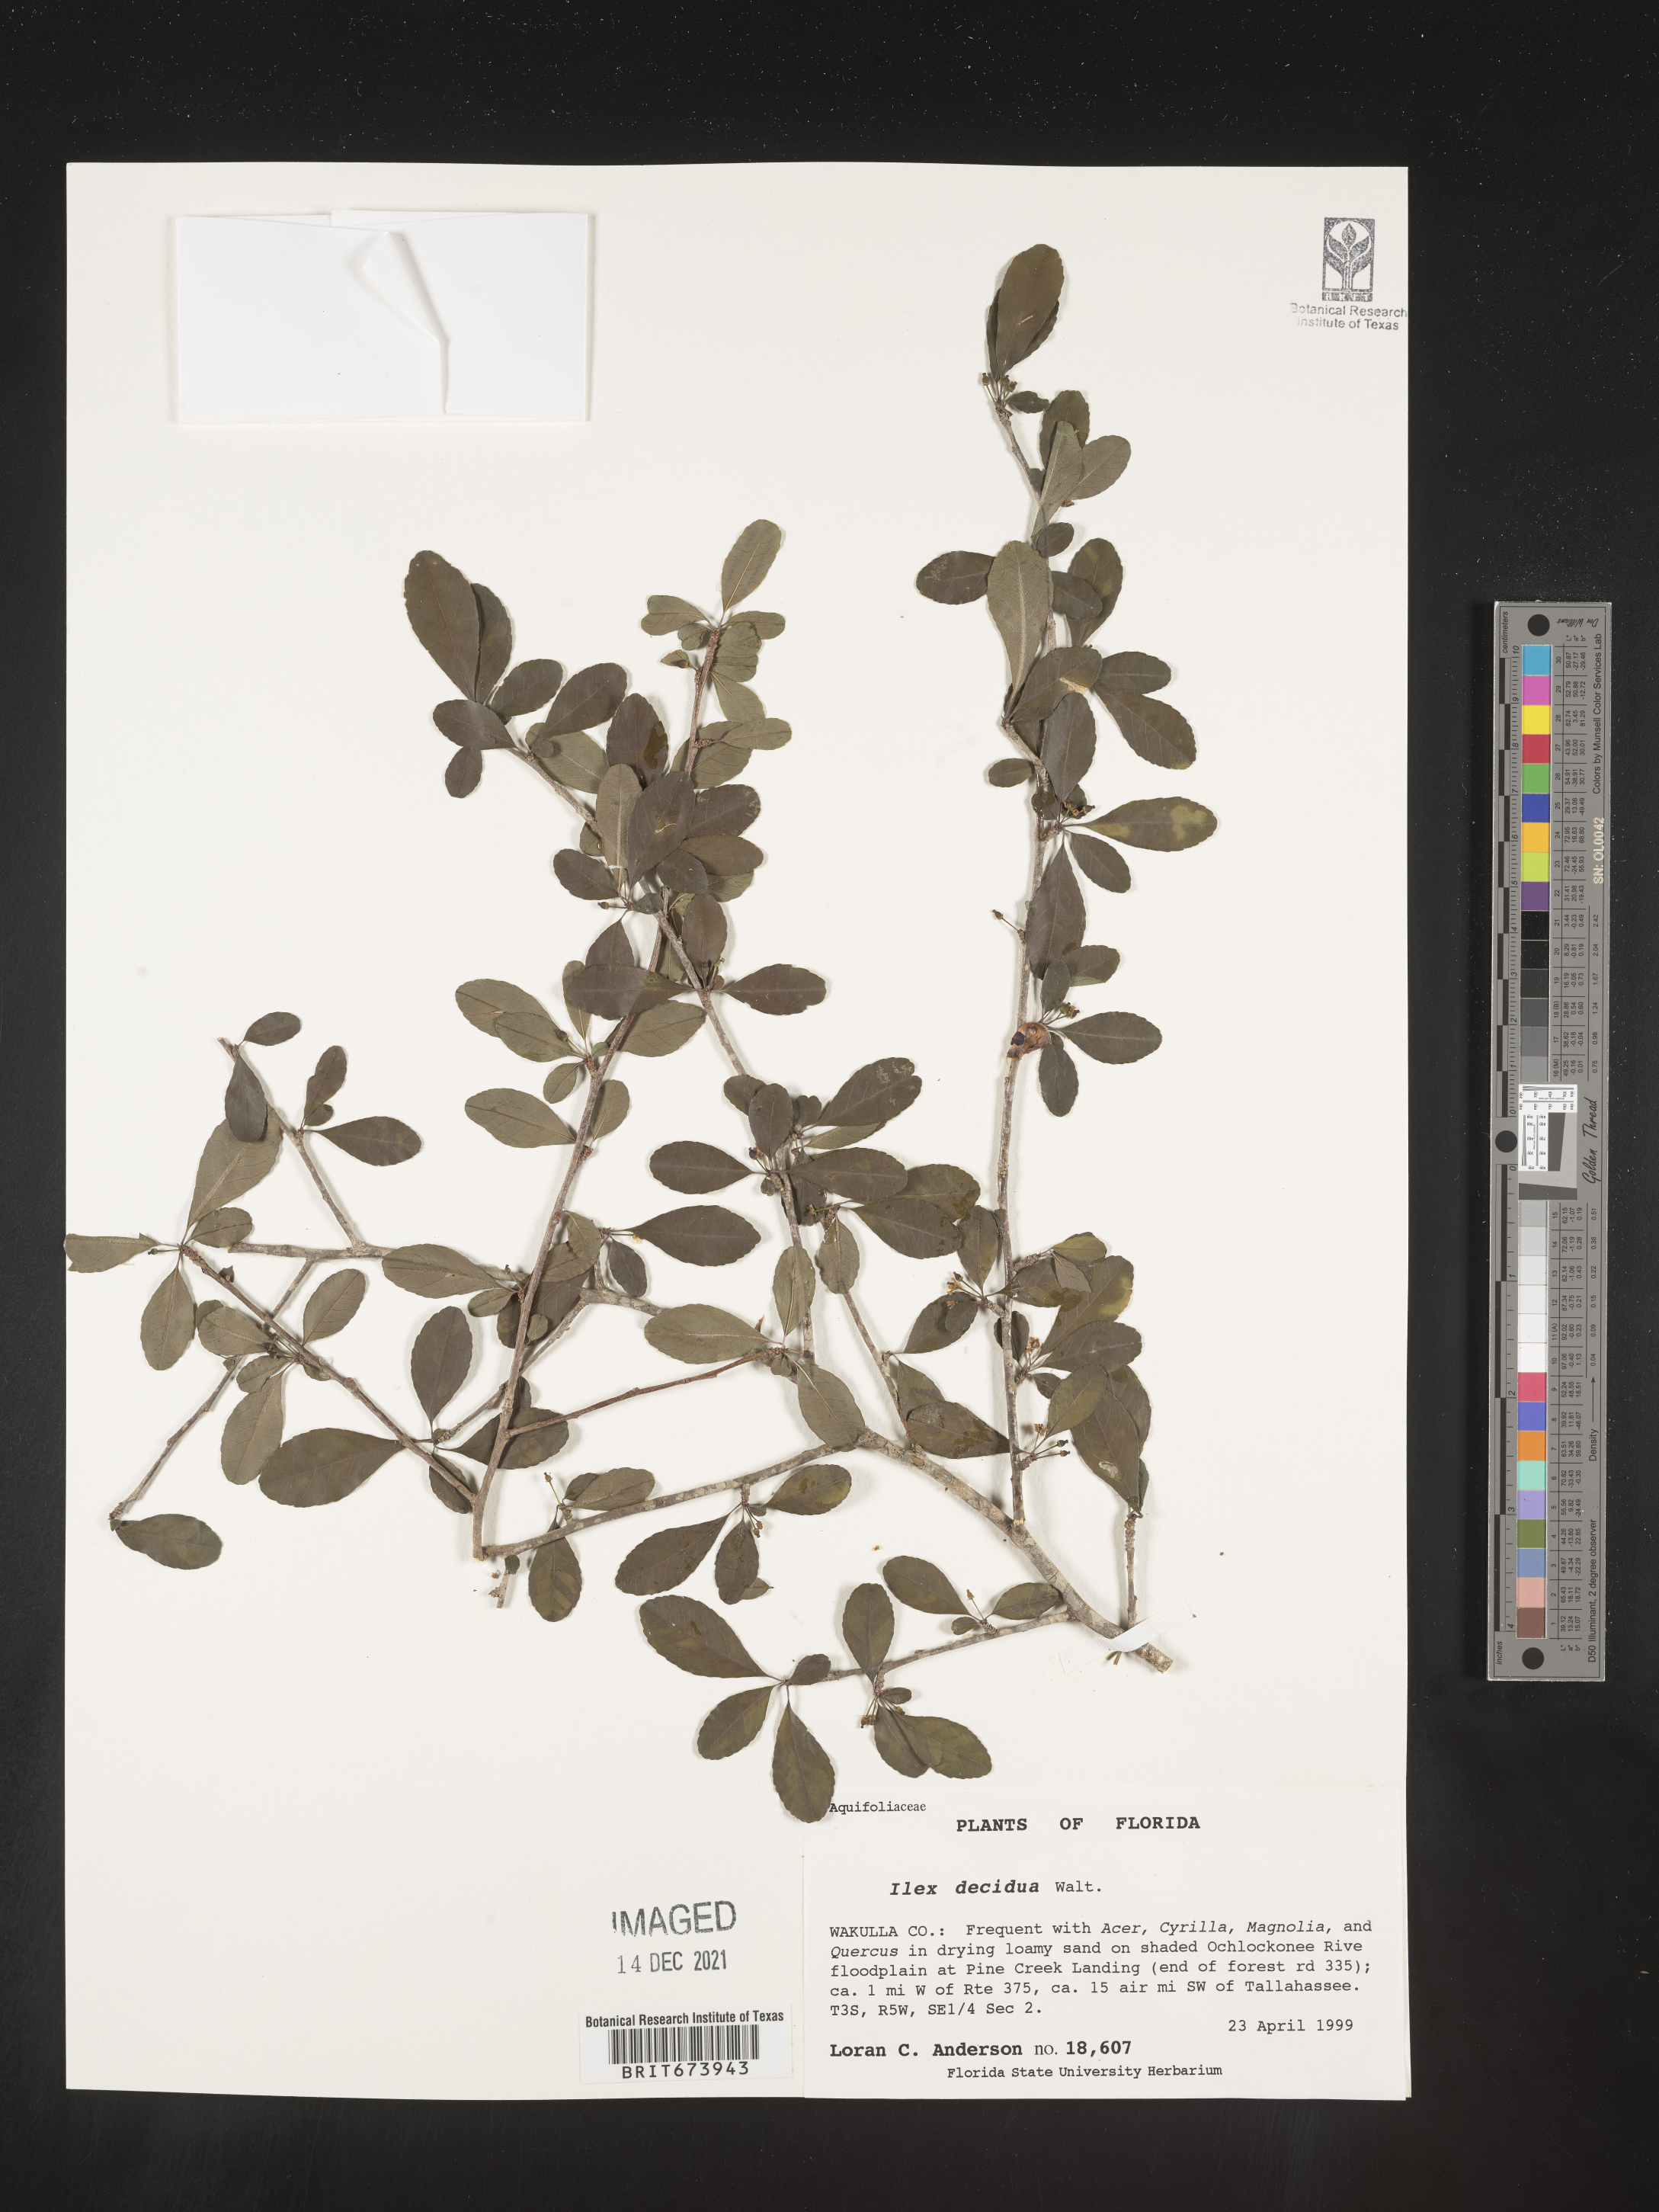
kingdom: Plantae
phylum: Tracheophyta
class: Magnoliopsida
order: Aquifoliales
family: Aquifoliaceae
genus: Ilex
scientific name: Ilex decidua
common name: Possum-haw
